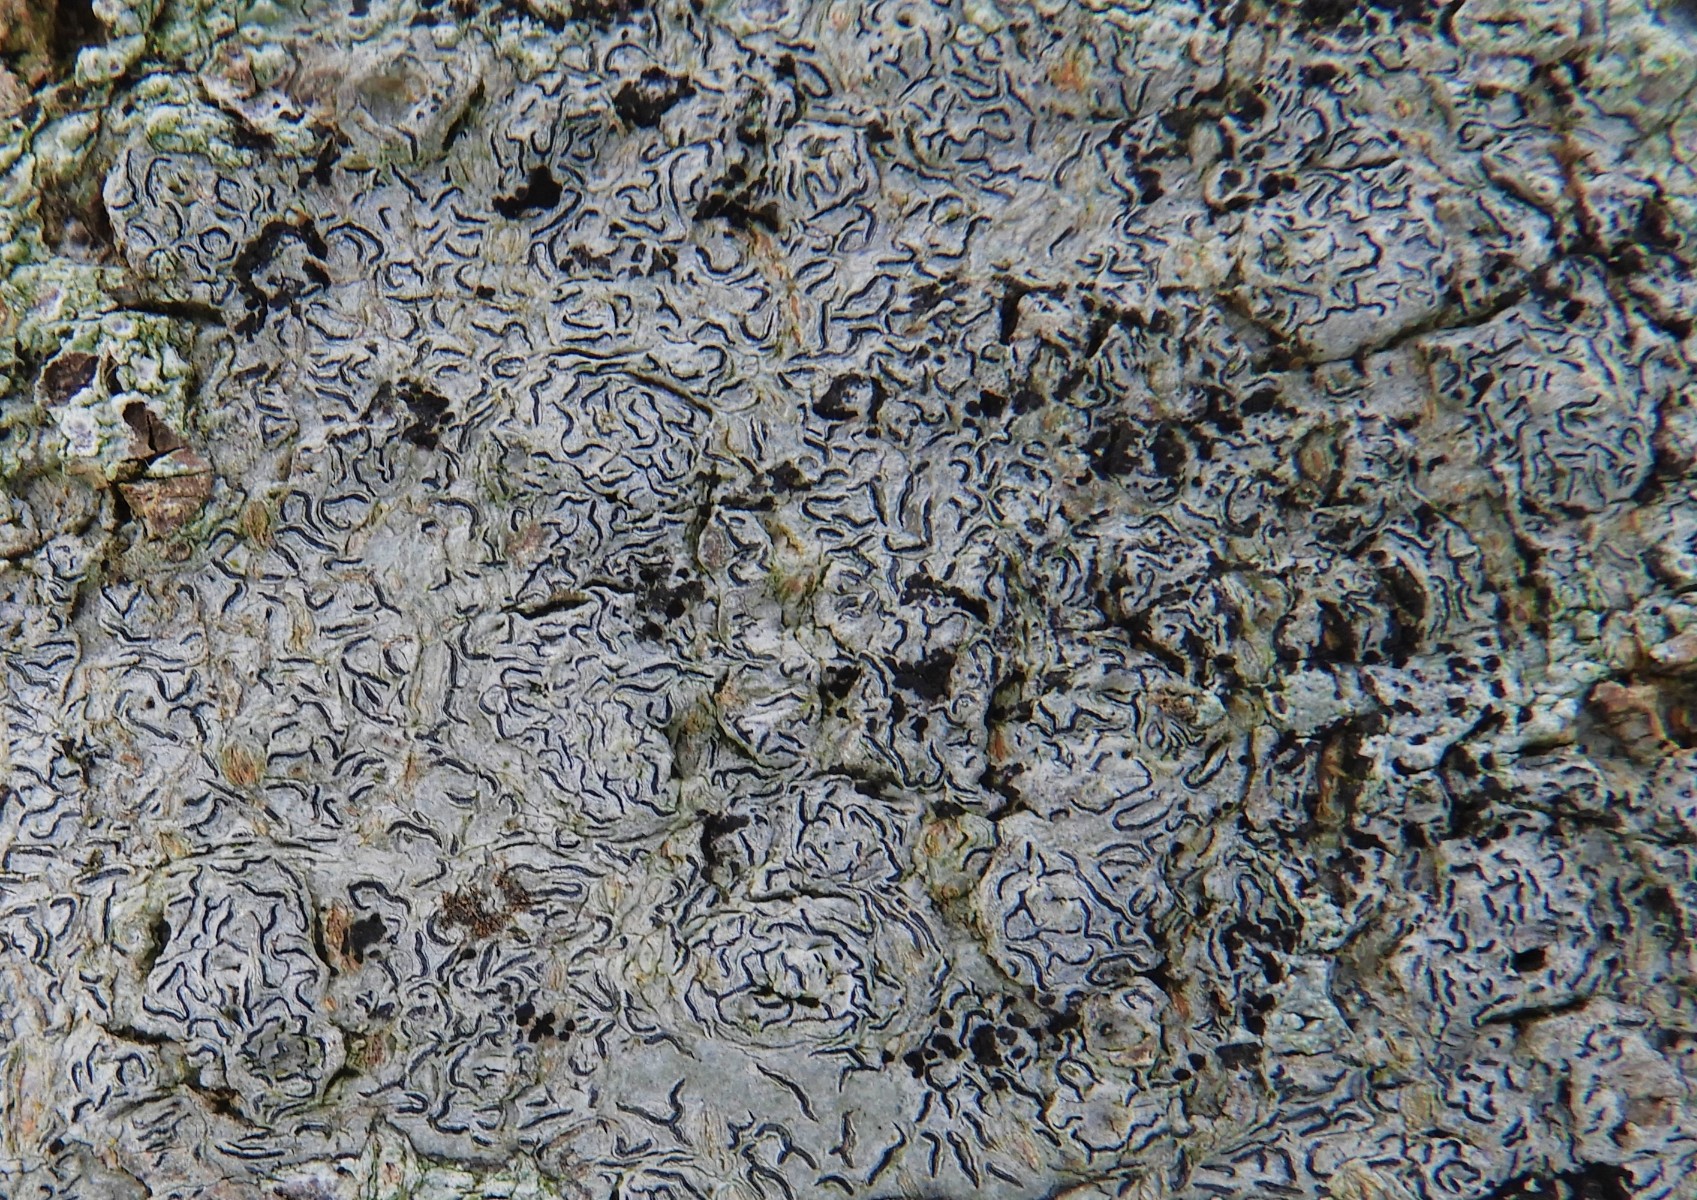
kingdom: Fungi
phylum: Ascomycota
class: Lecanoromycetes
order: Ostropales
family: Graphidaceae
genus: Graphis
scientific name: Graphis scripta
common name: almindelig skriftlav
